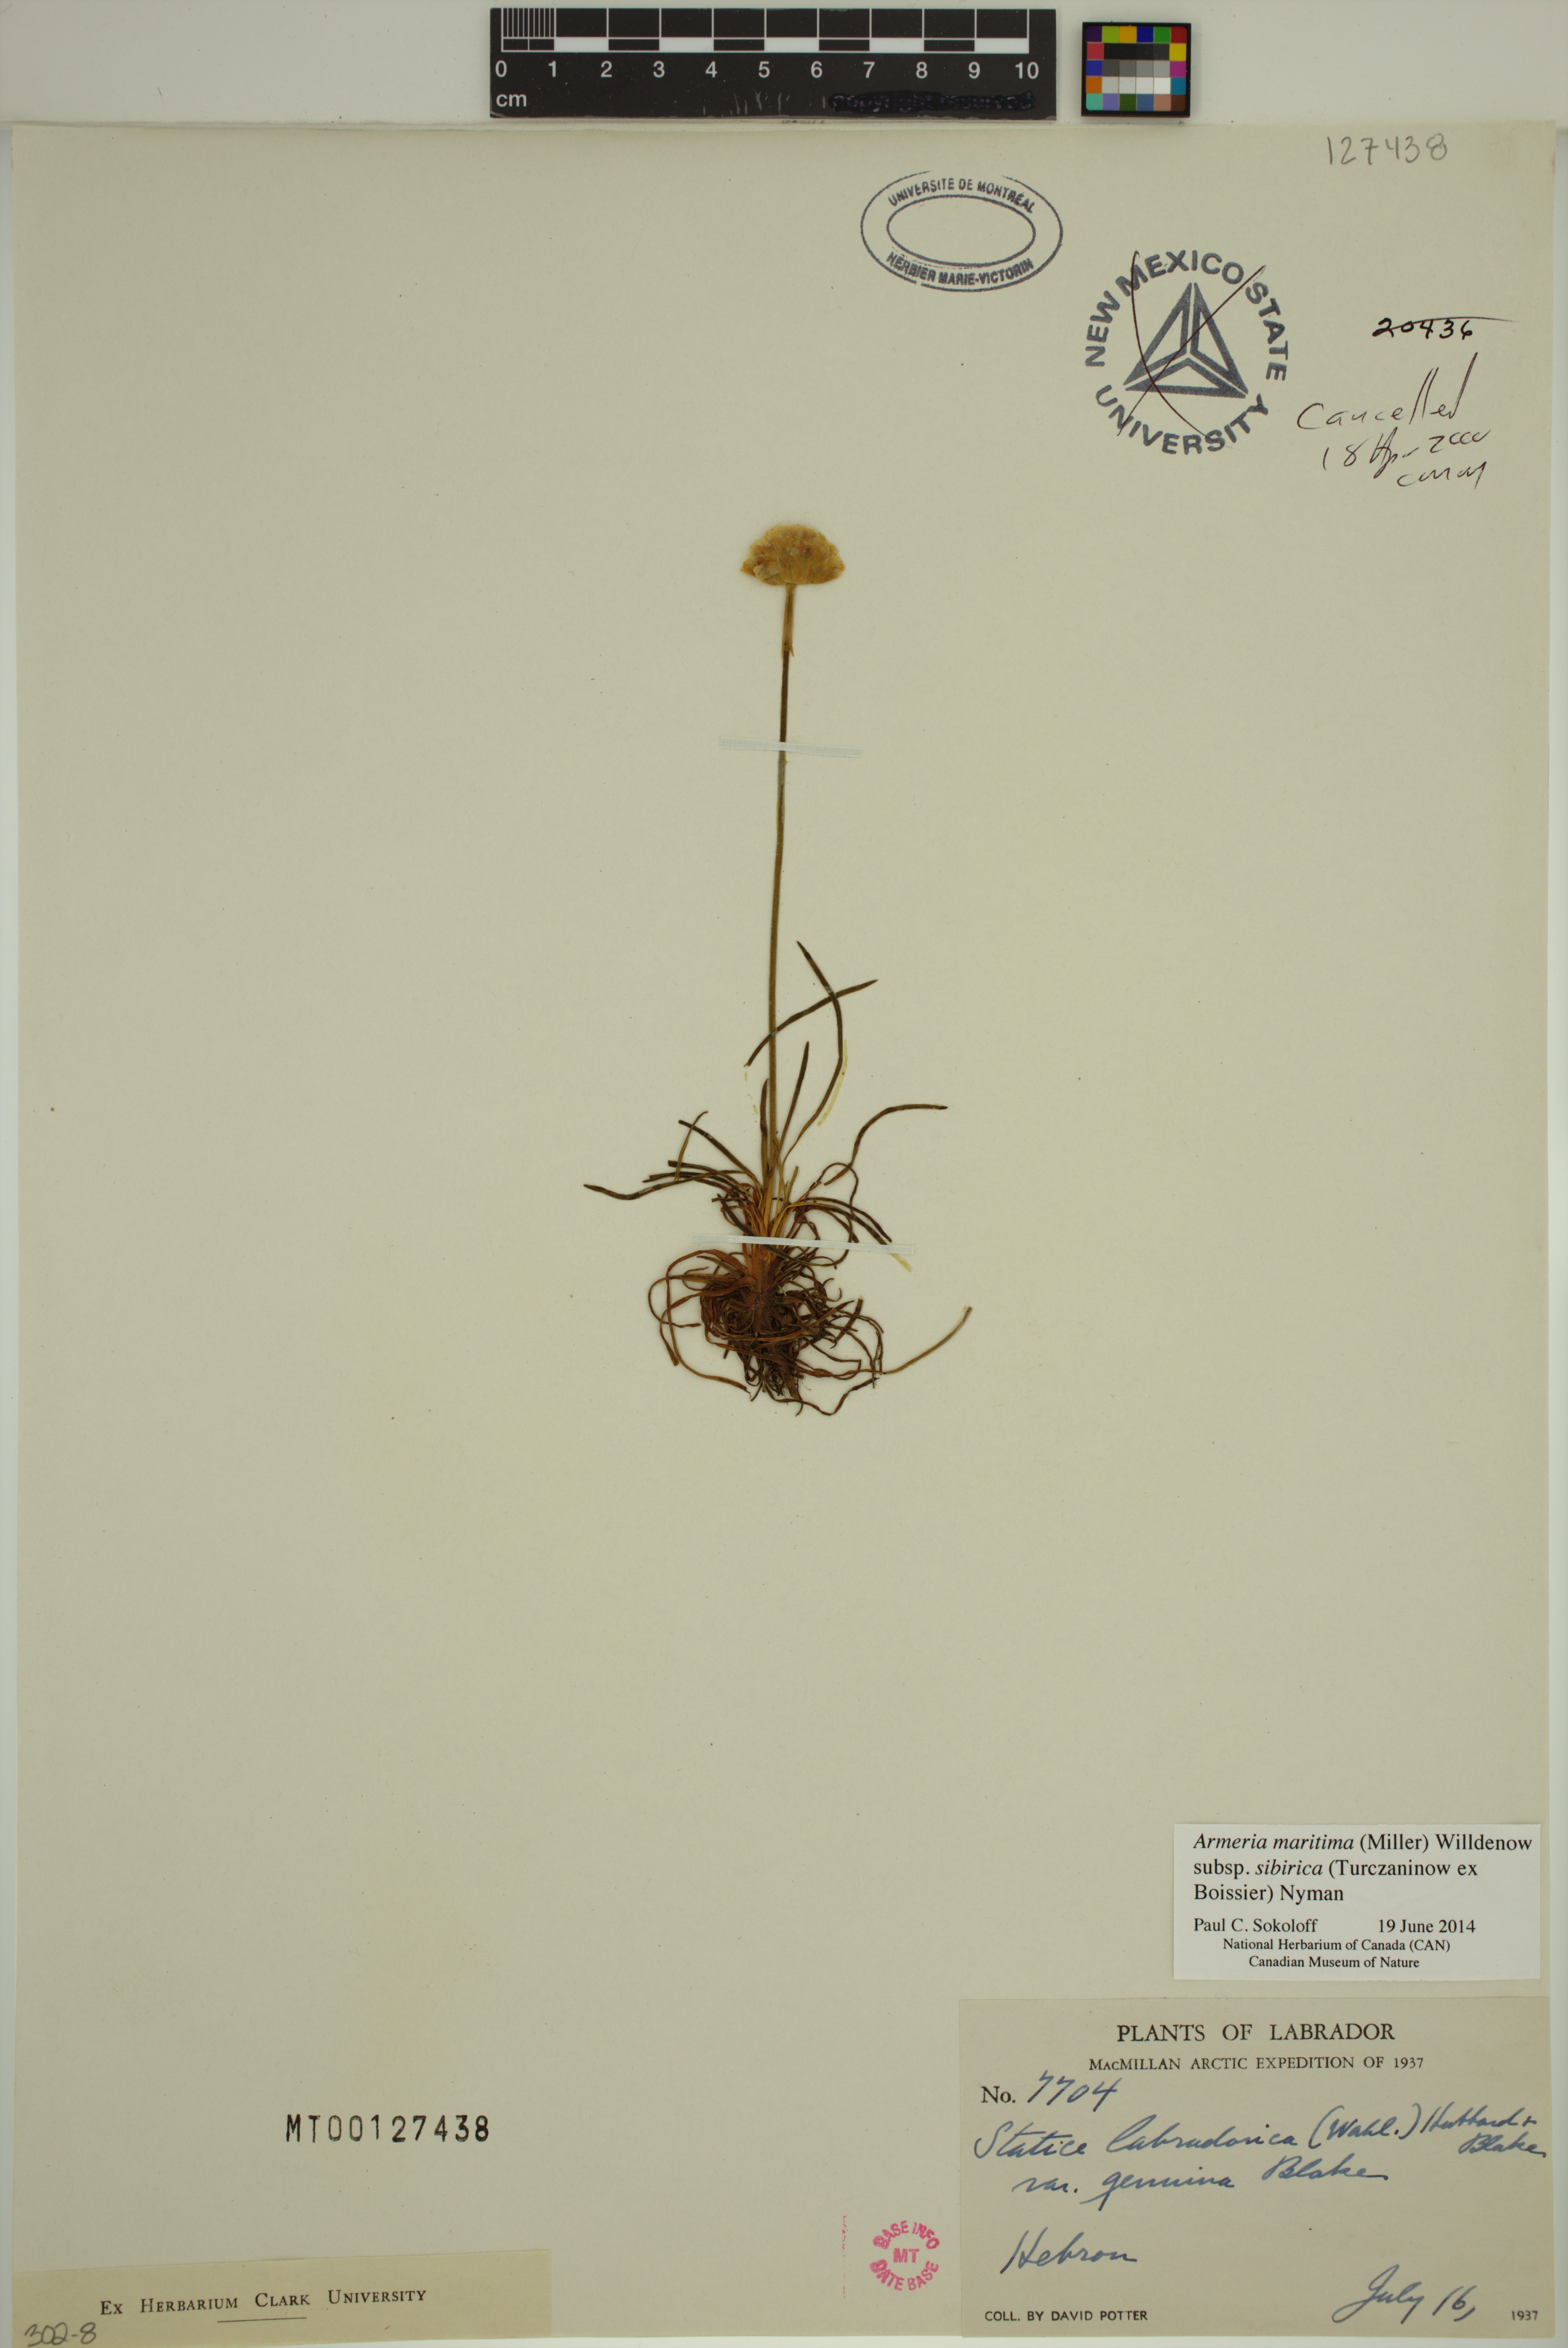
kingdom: Plantae
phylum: Tracheophyta
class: Magnoliopsida
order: Caryophyllales
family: Plumbaginaceae
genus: Armeria
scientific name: Armeria maritima
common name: Thrift
